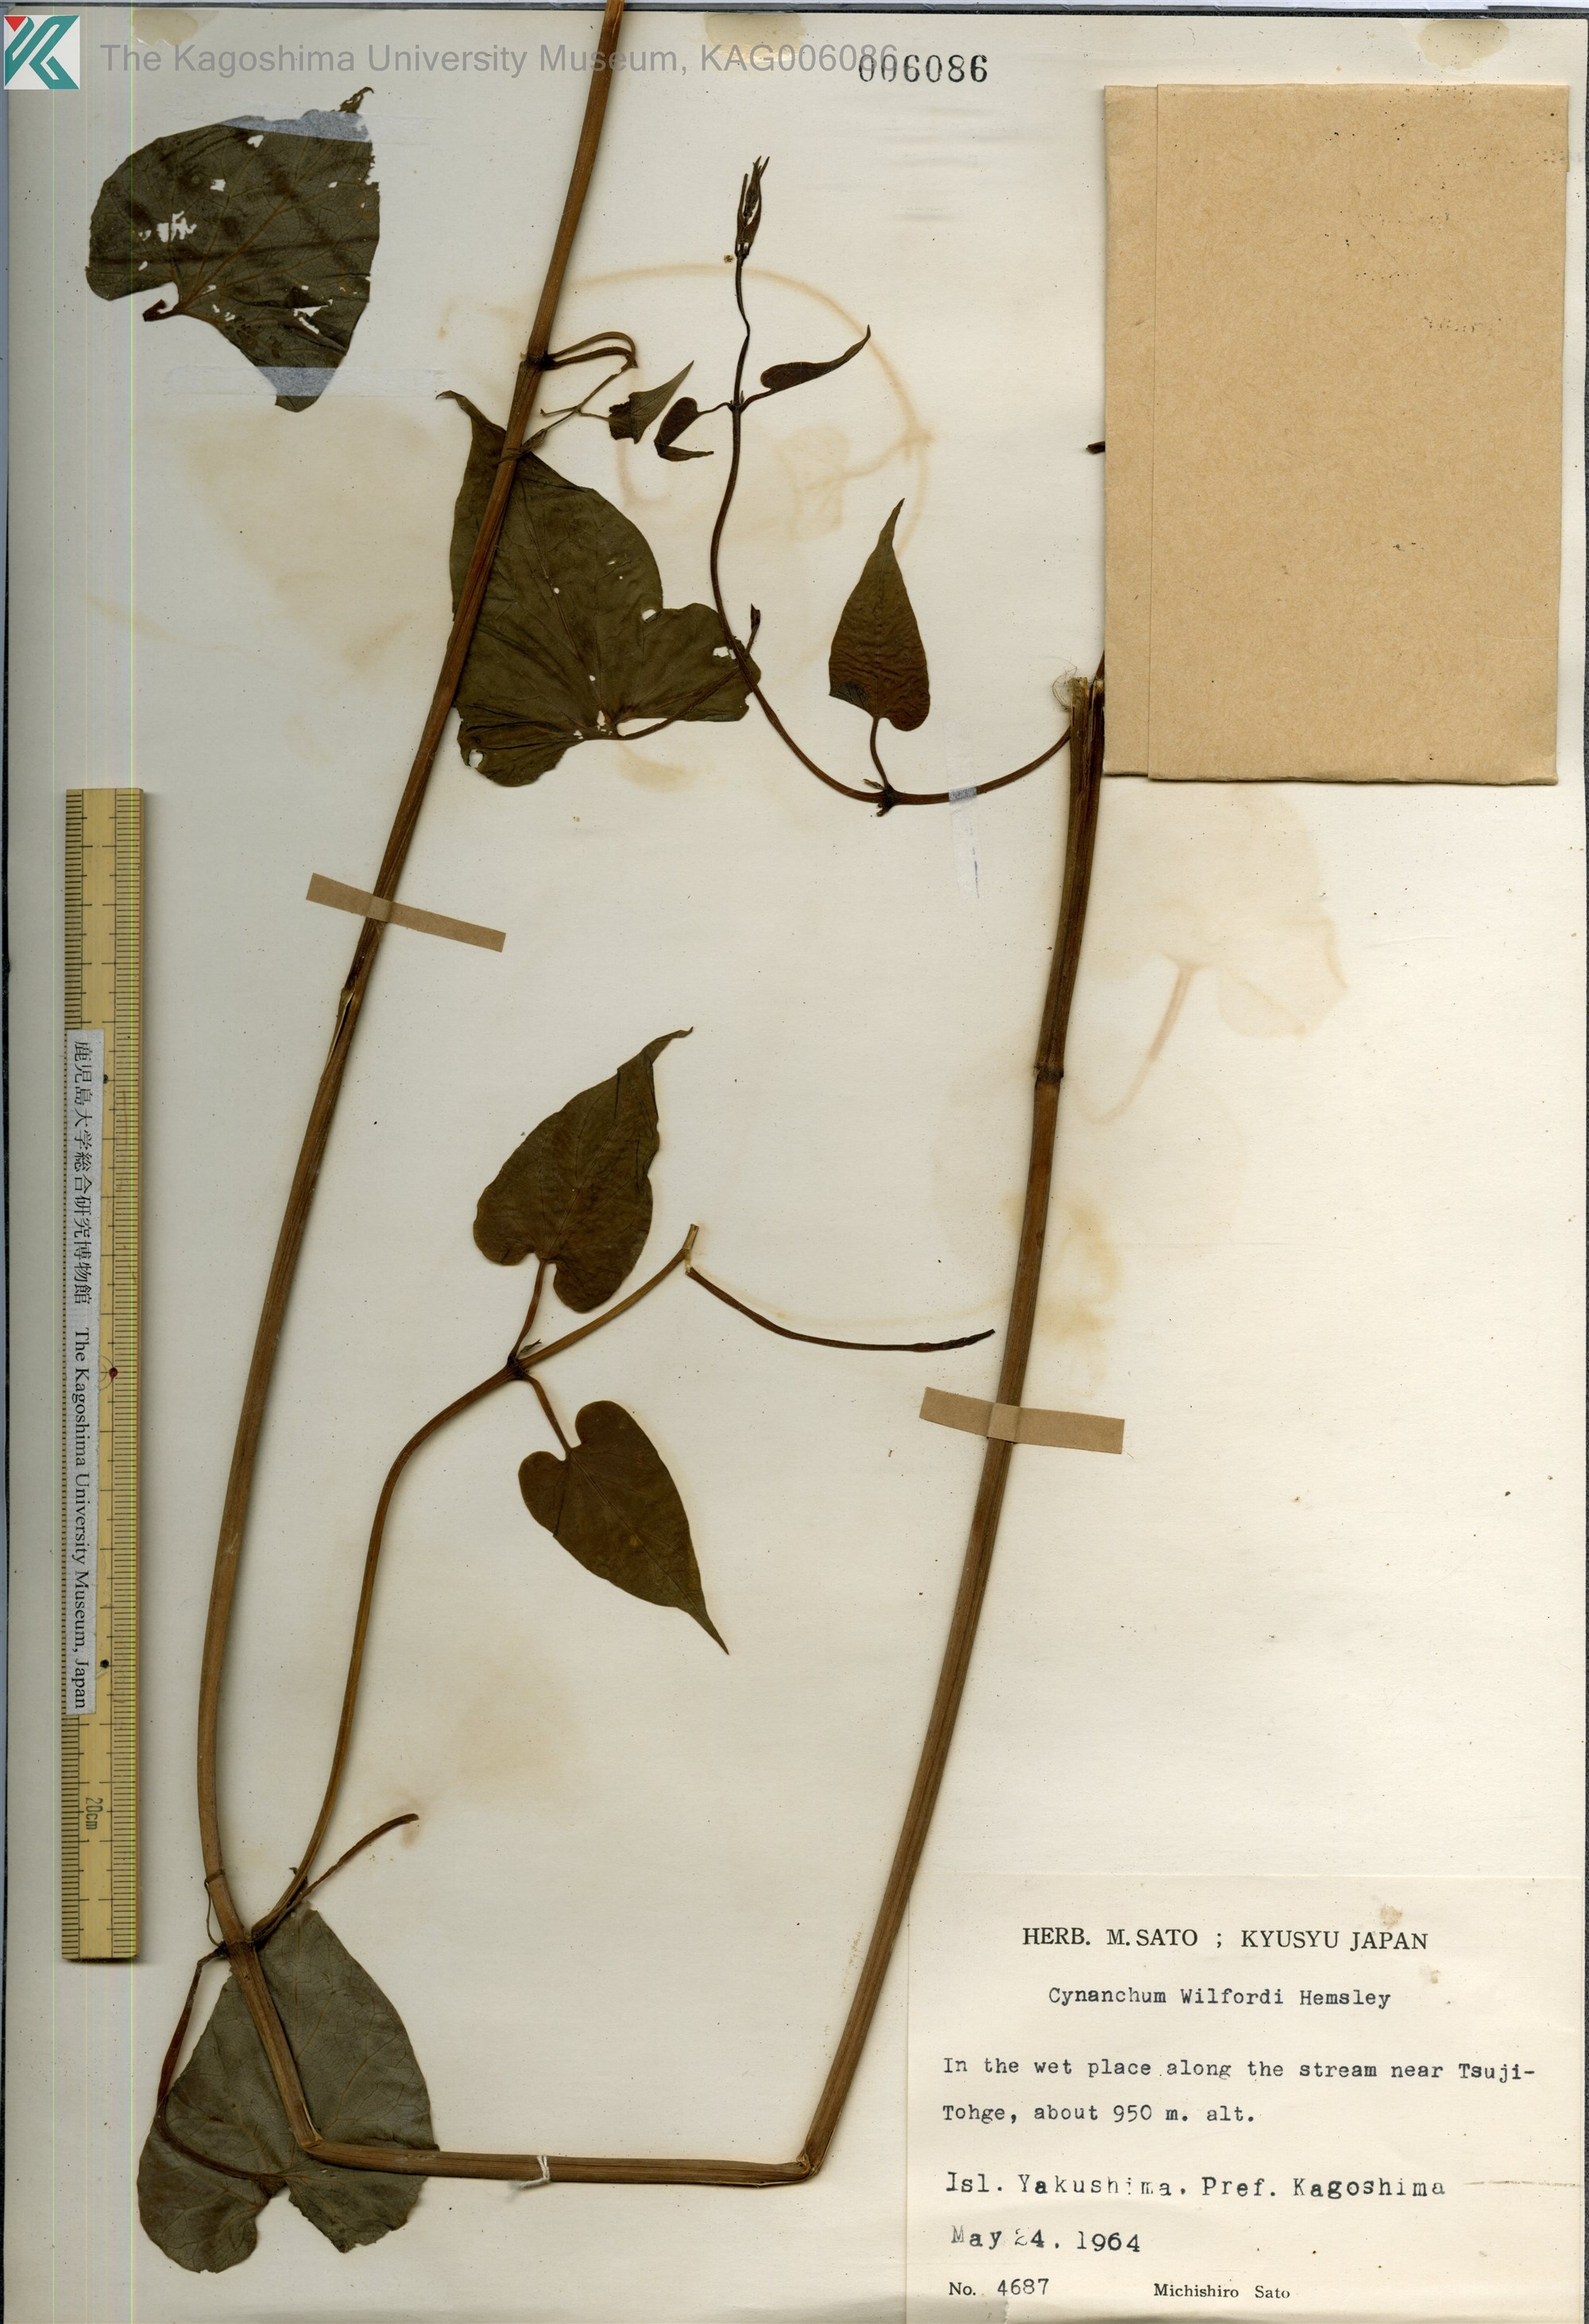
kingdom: Plantae
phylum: Tracheophyta
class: Magnoliopsida
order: Gentianales
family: Apocynaceae
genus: Cynanchum
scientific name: Cynanchum wilfordii
